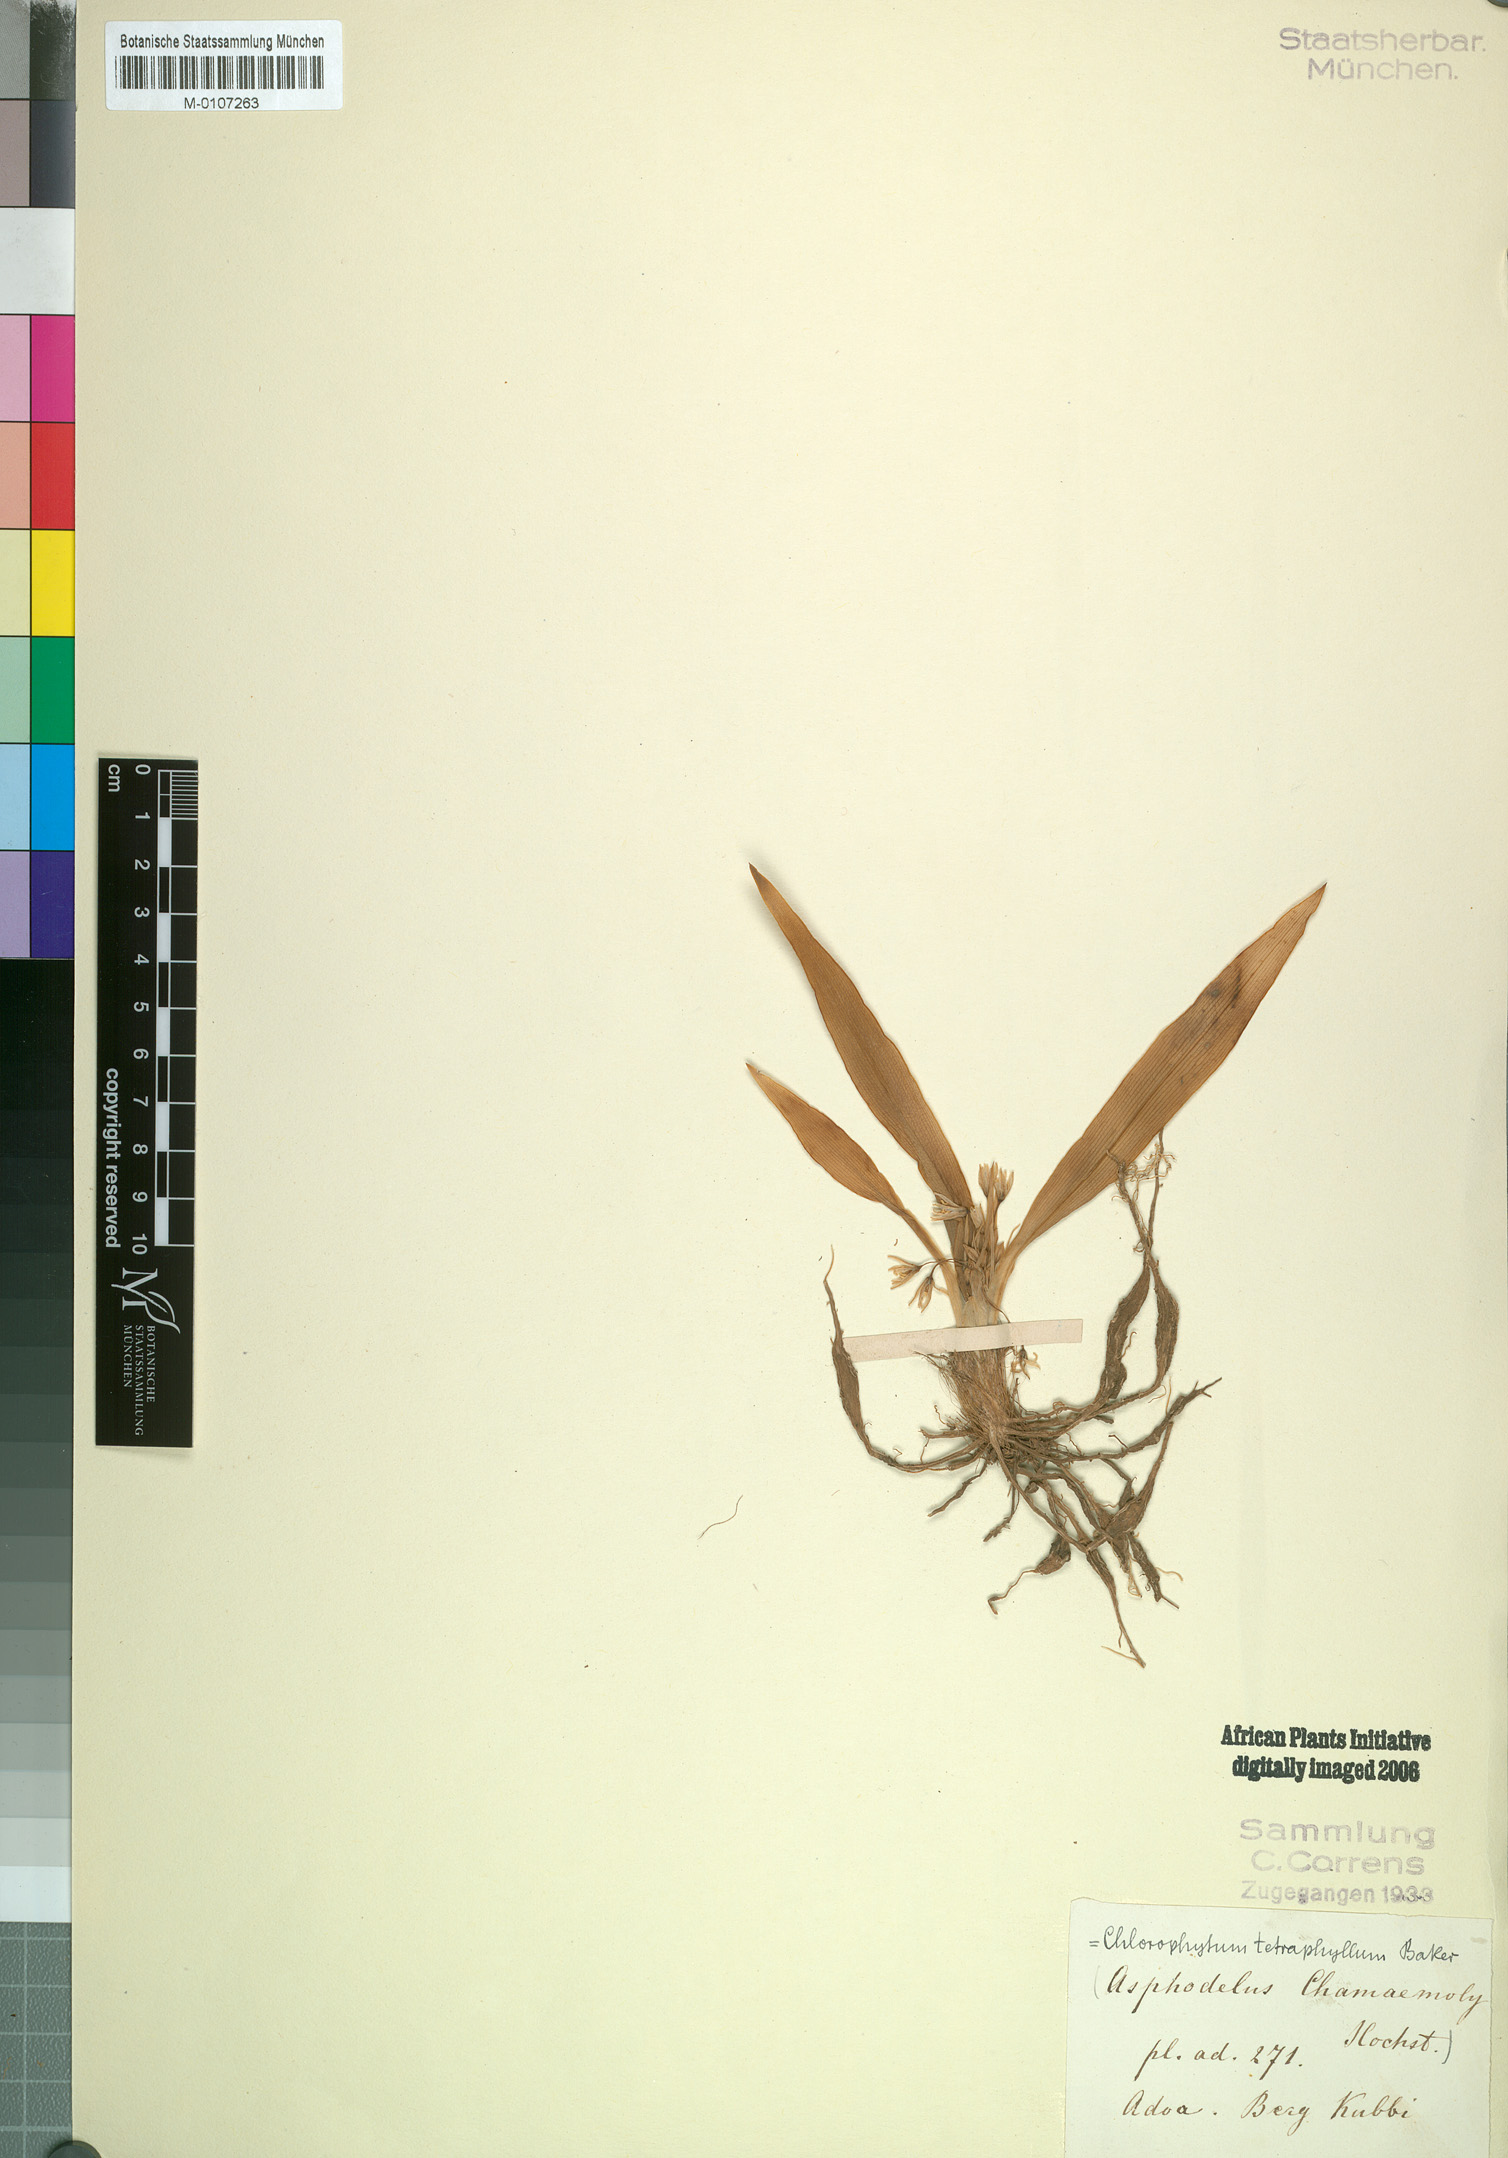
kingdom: Plantae
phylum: Tracheophyta
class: Liliopsida
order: Asparagales
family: Asparagaceae
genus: Chlorophytum
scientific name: Chlorophytum tetraphyllum
